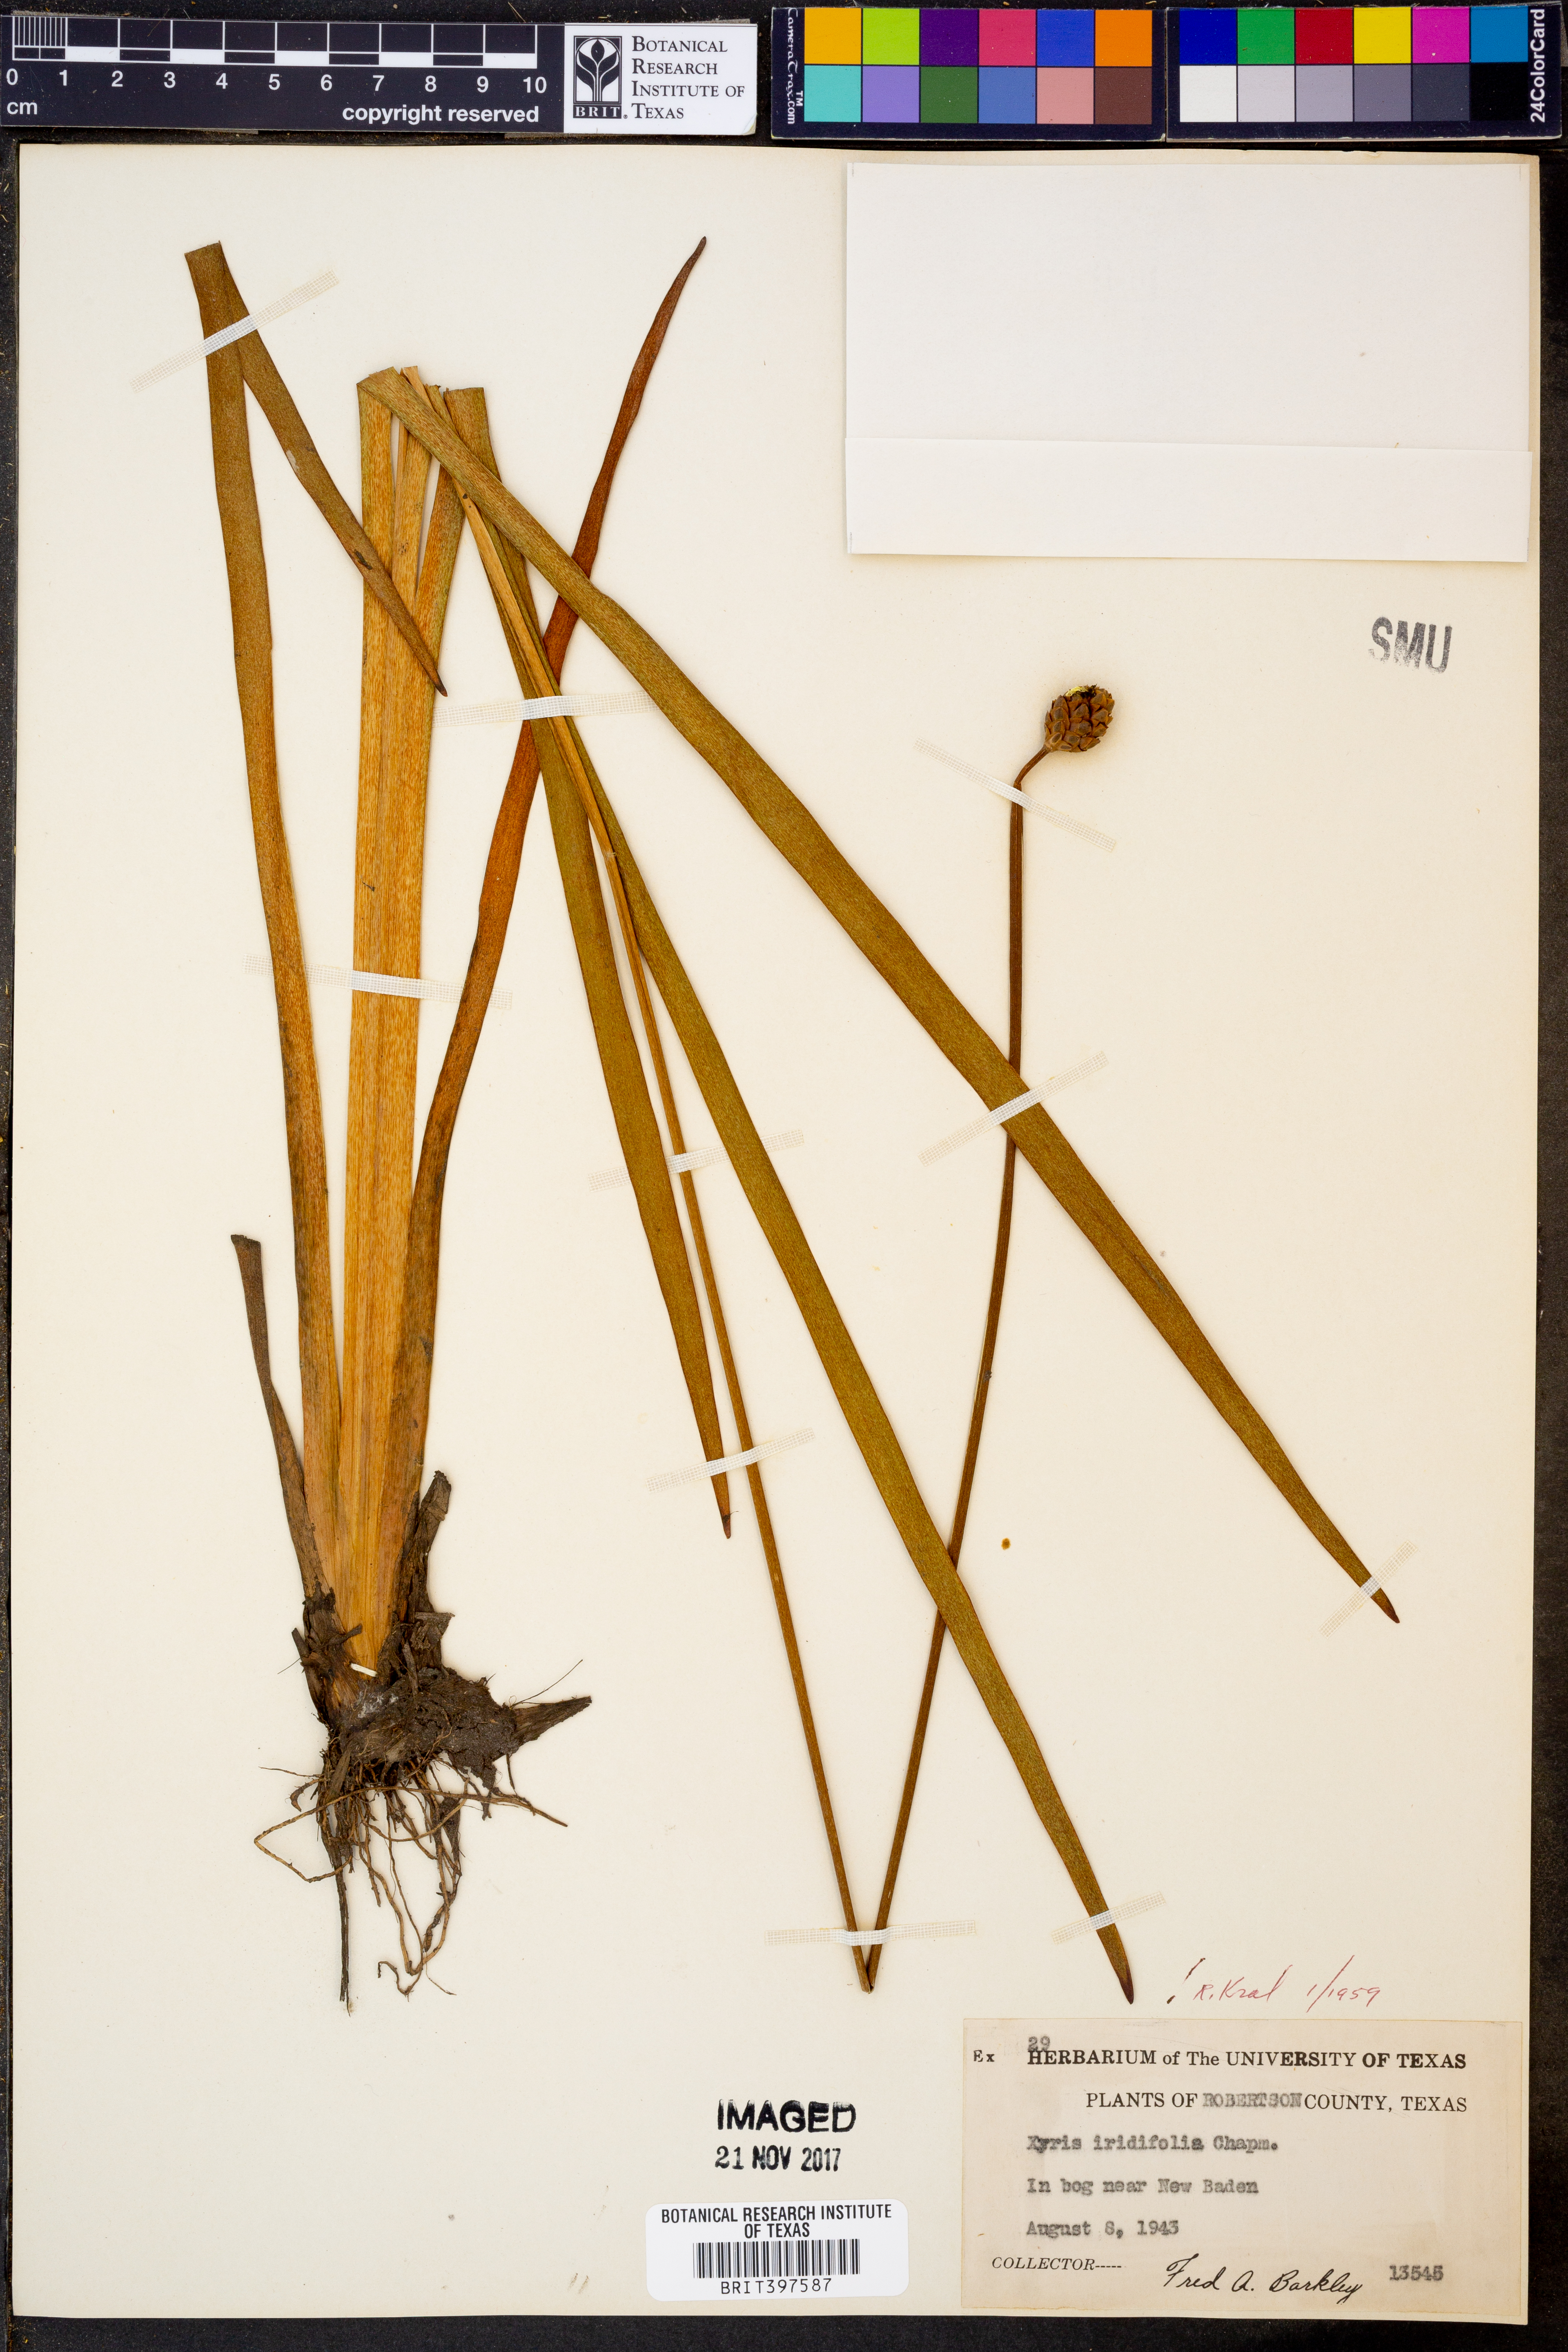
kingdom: Plantae
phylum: Tracheophyta
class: Liliopsida
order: Poales
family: Xyridaceae
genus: Xyris
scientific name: Xyris laxifolia
